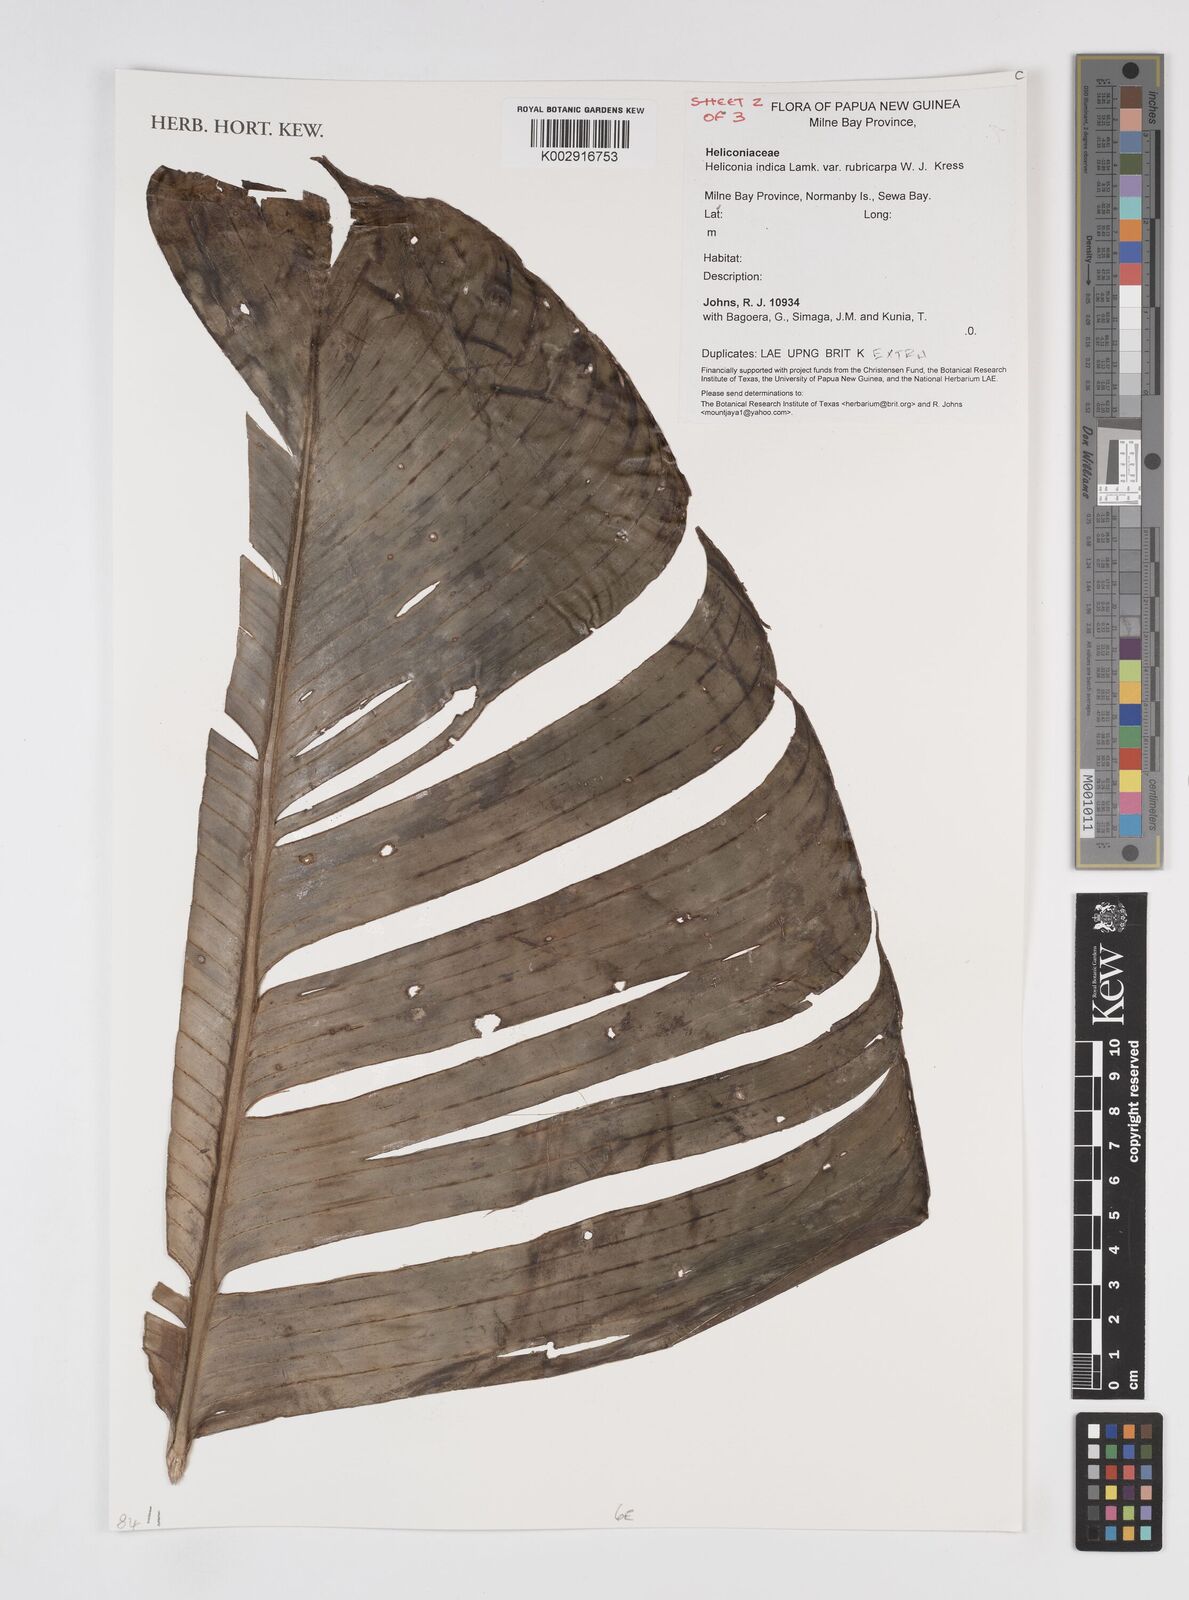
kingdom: Plantae
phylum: Tracheophyta
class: Liliopsida
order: Zingiberales
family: Heliconiaceae
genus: Heliconia
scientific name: Heliconia indica
